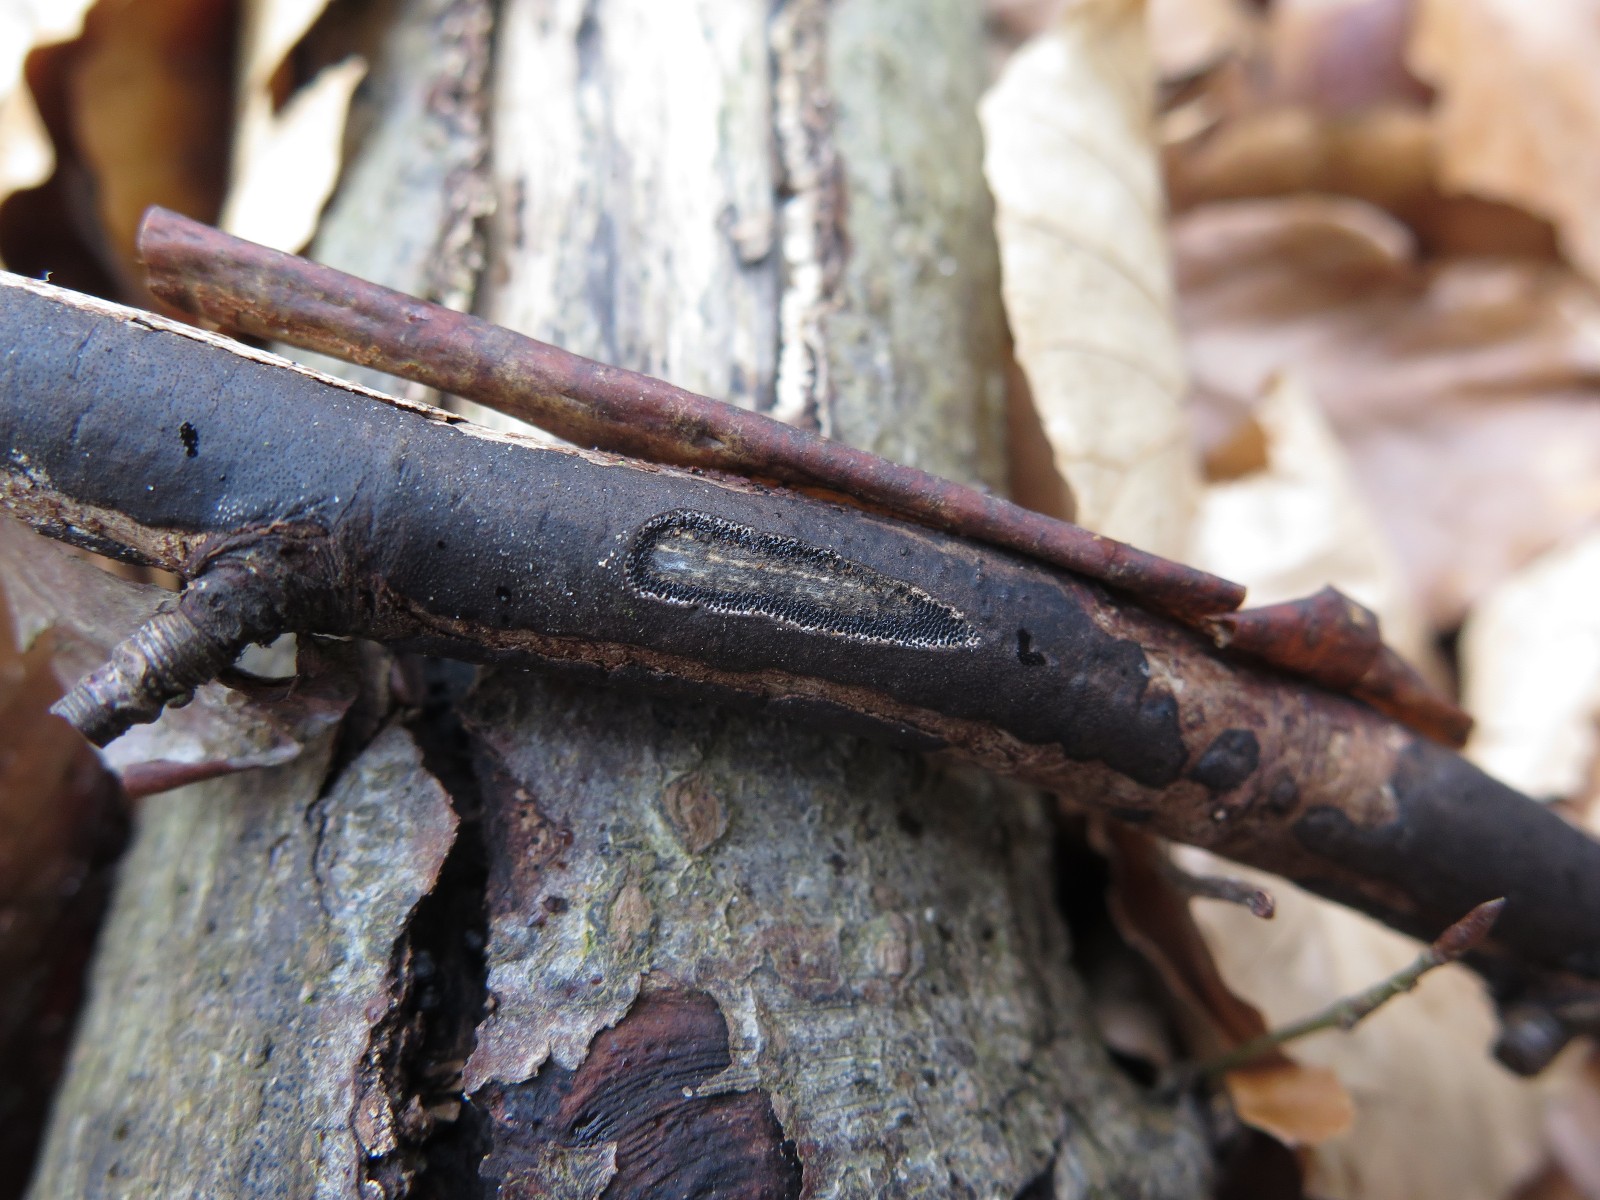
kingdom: Fungi
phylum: Ascomycota
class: Sordariomycetes
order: Xylariales
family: Diatrypaceae
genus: Diatrype
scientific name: Diatrype decorticata
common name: barksprænger-kulskorpe
